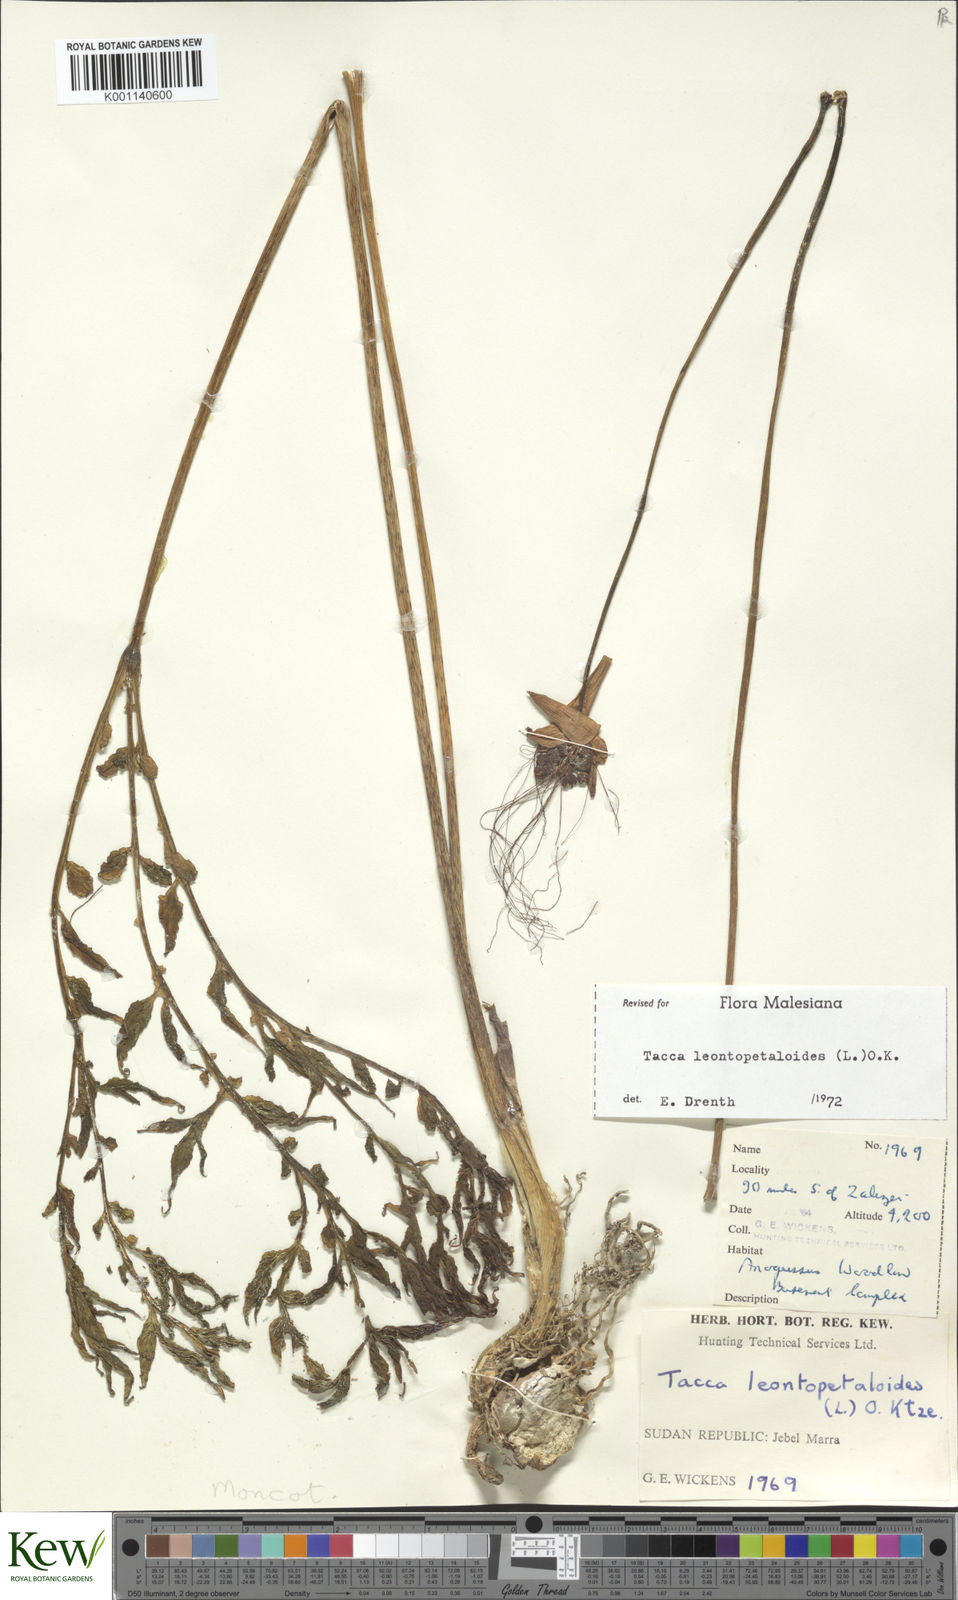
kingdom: Plantae
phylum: Tracheophyta
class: Liliopsida
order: Dioscoreales
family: Dioscoreaceae
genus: Tacca
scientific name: Tacca leontopetaloides
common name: Arrowroot
